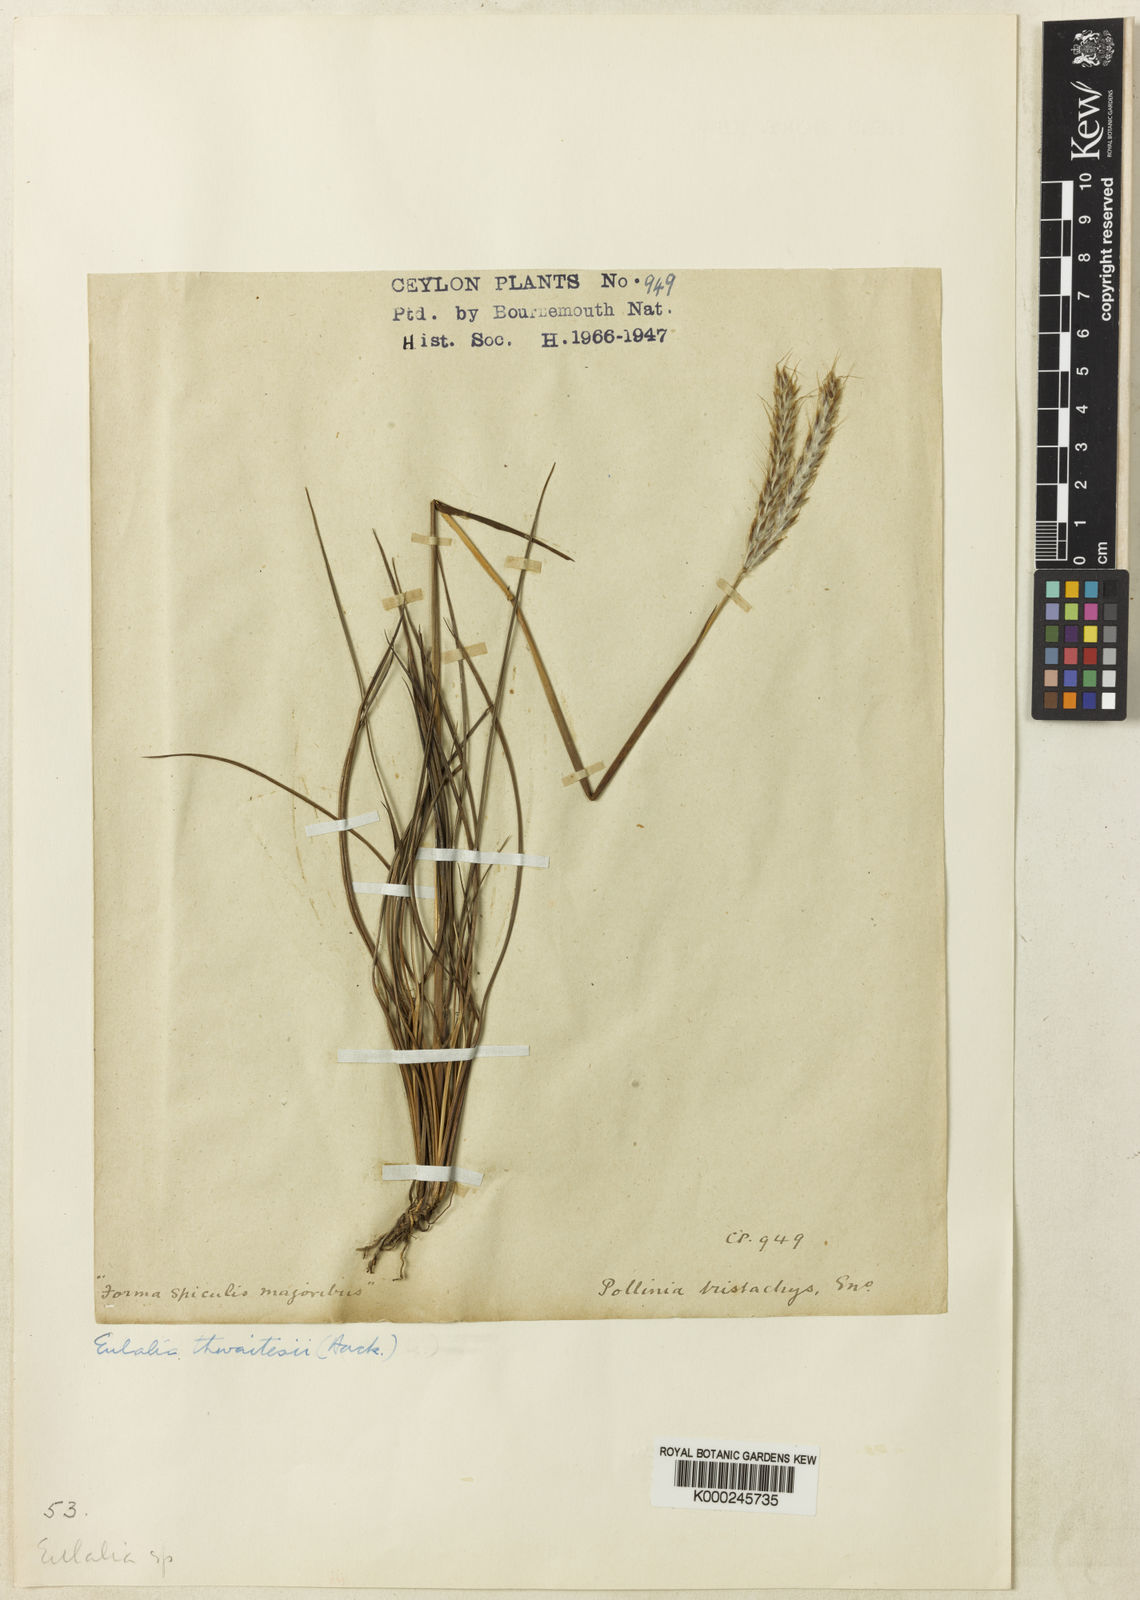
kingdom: Plantae
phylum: Tracheophyta
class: Liliopsida
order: Poales
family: Poaceae
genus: Eulalia
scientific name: Eulalia thwaitesii
